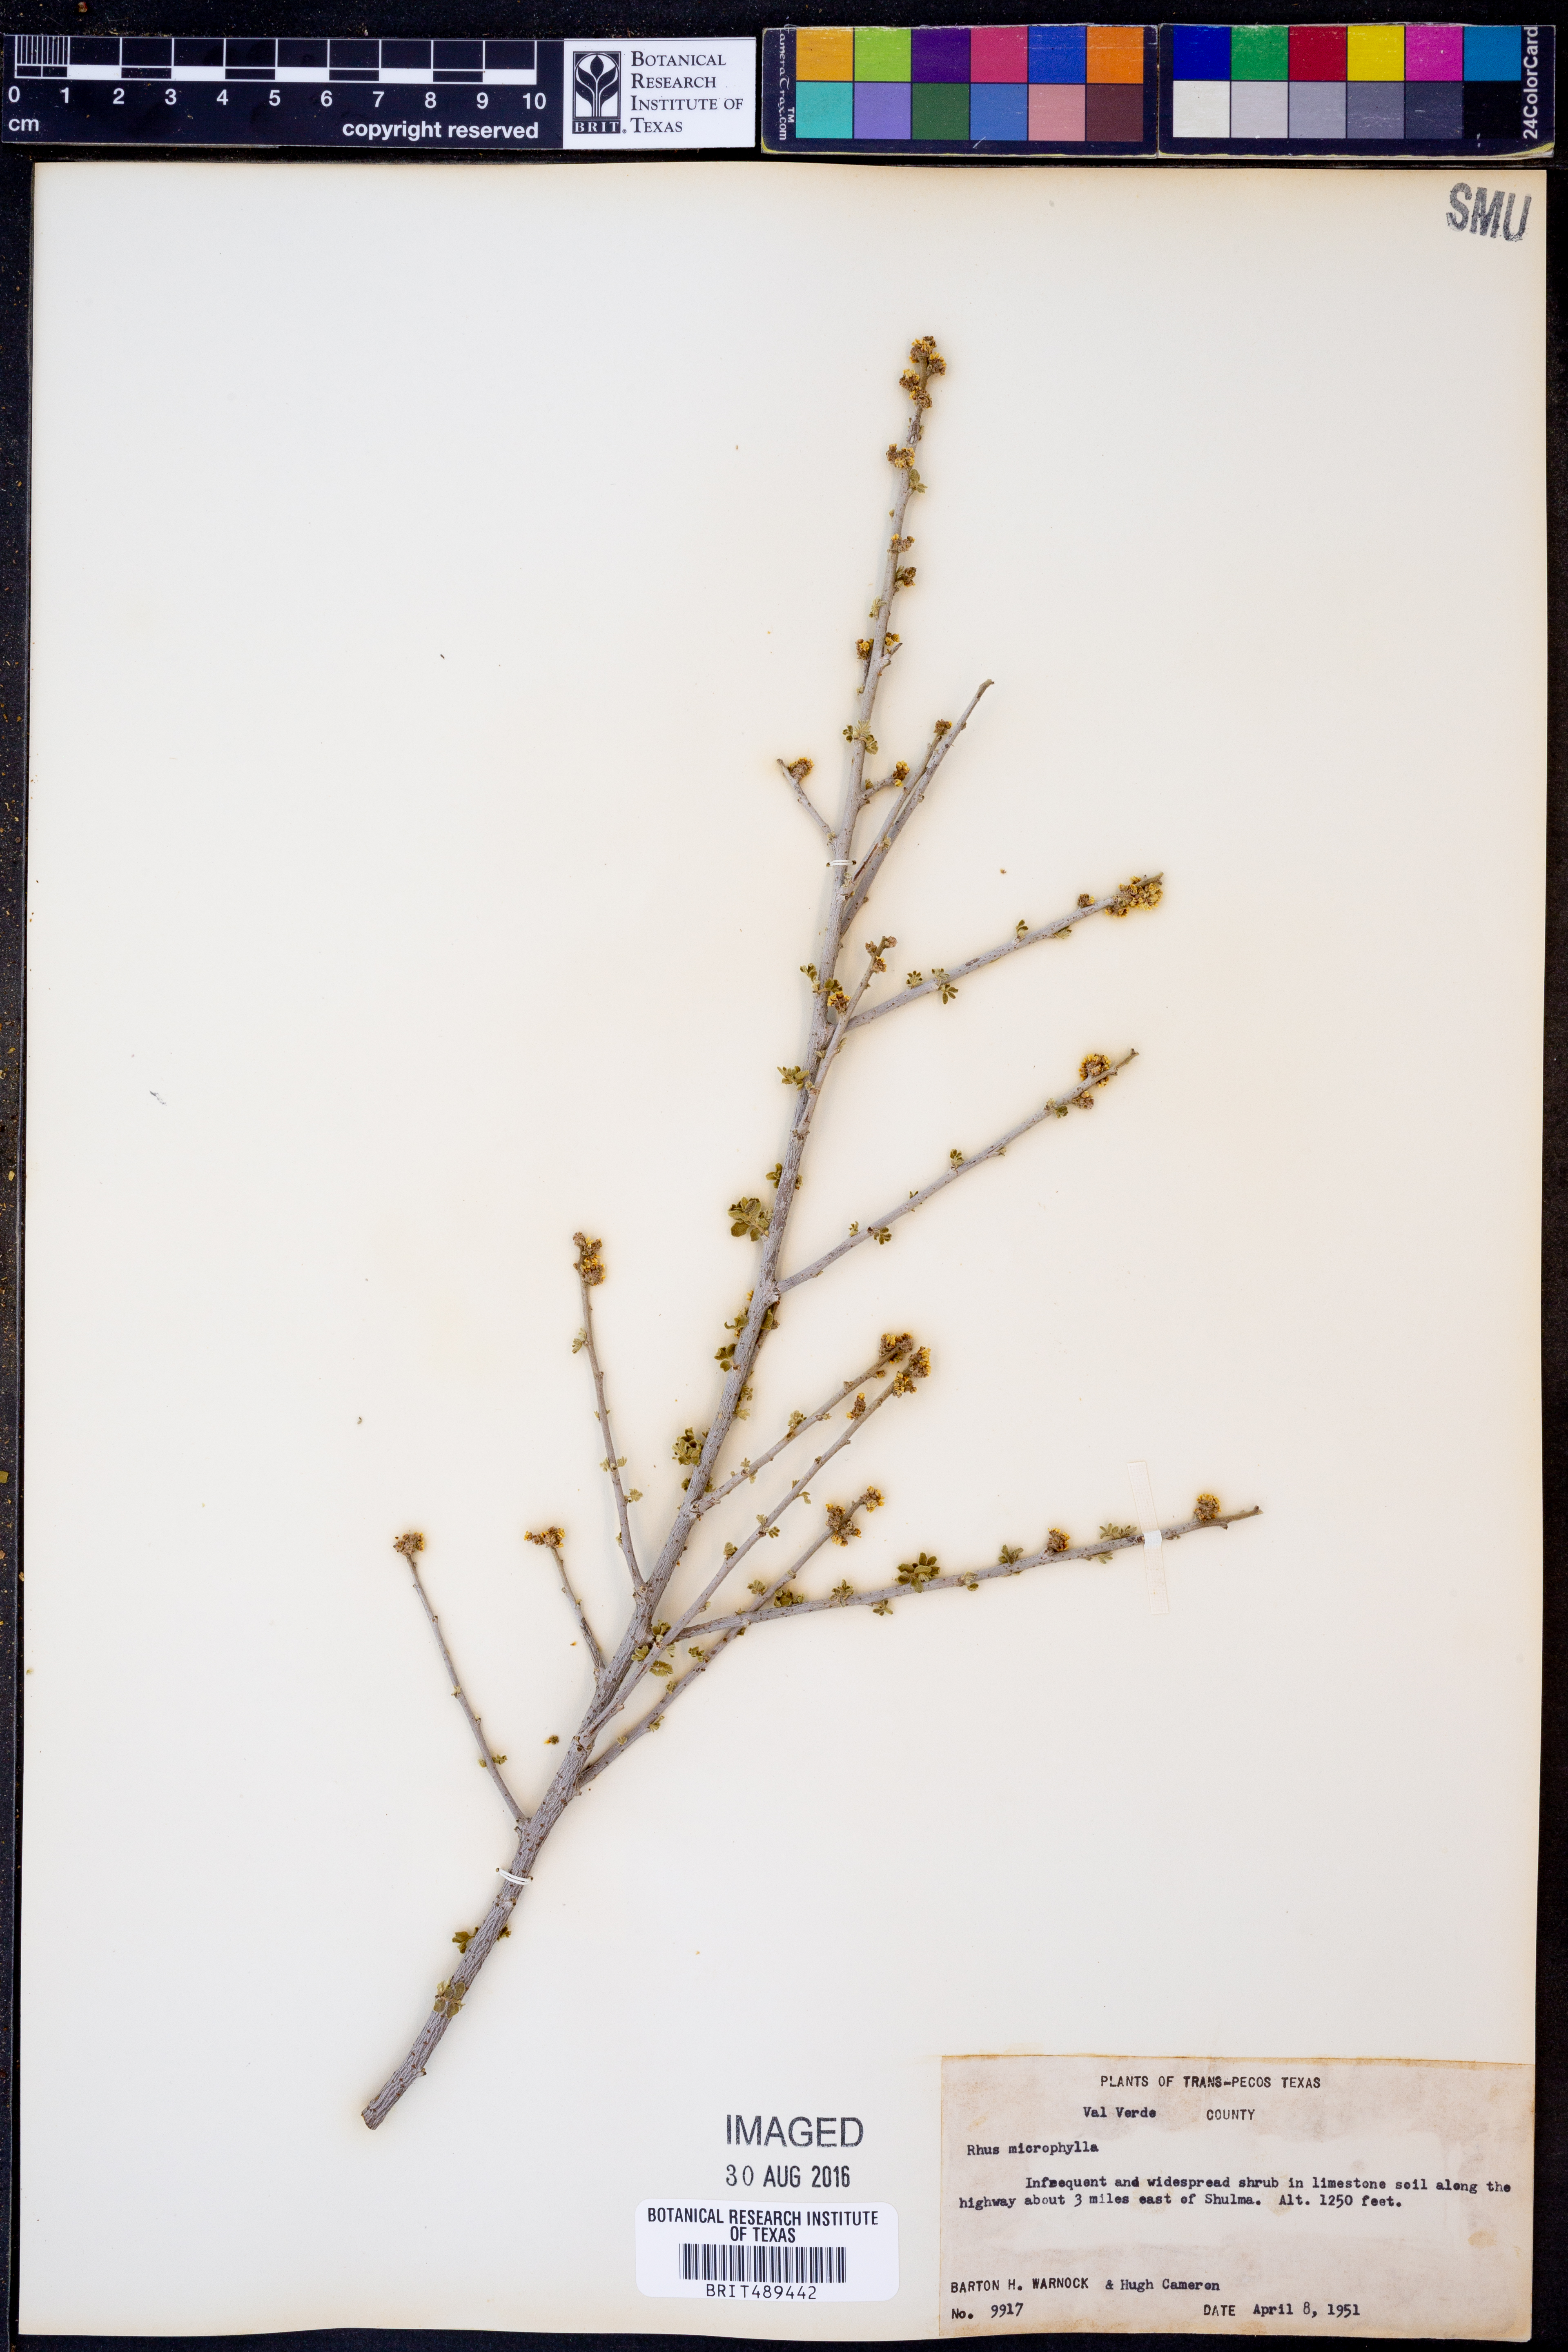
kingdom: Plantae
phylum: Tracheophyta
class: Magnoliopsida
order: Sapindales
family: Anacardiaceae
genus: Rhus
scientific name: Rhus microphylla
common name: Desert sumac
